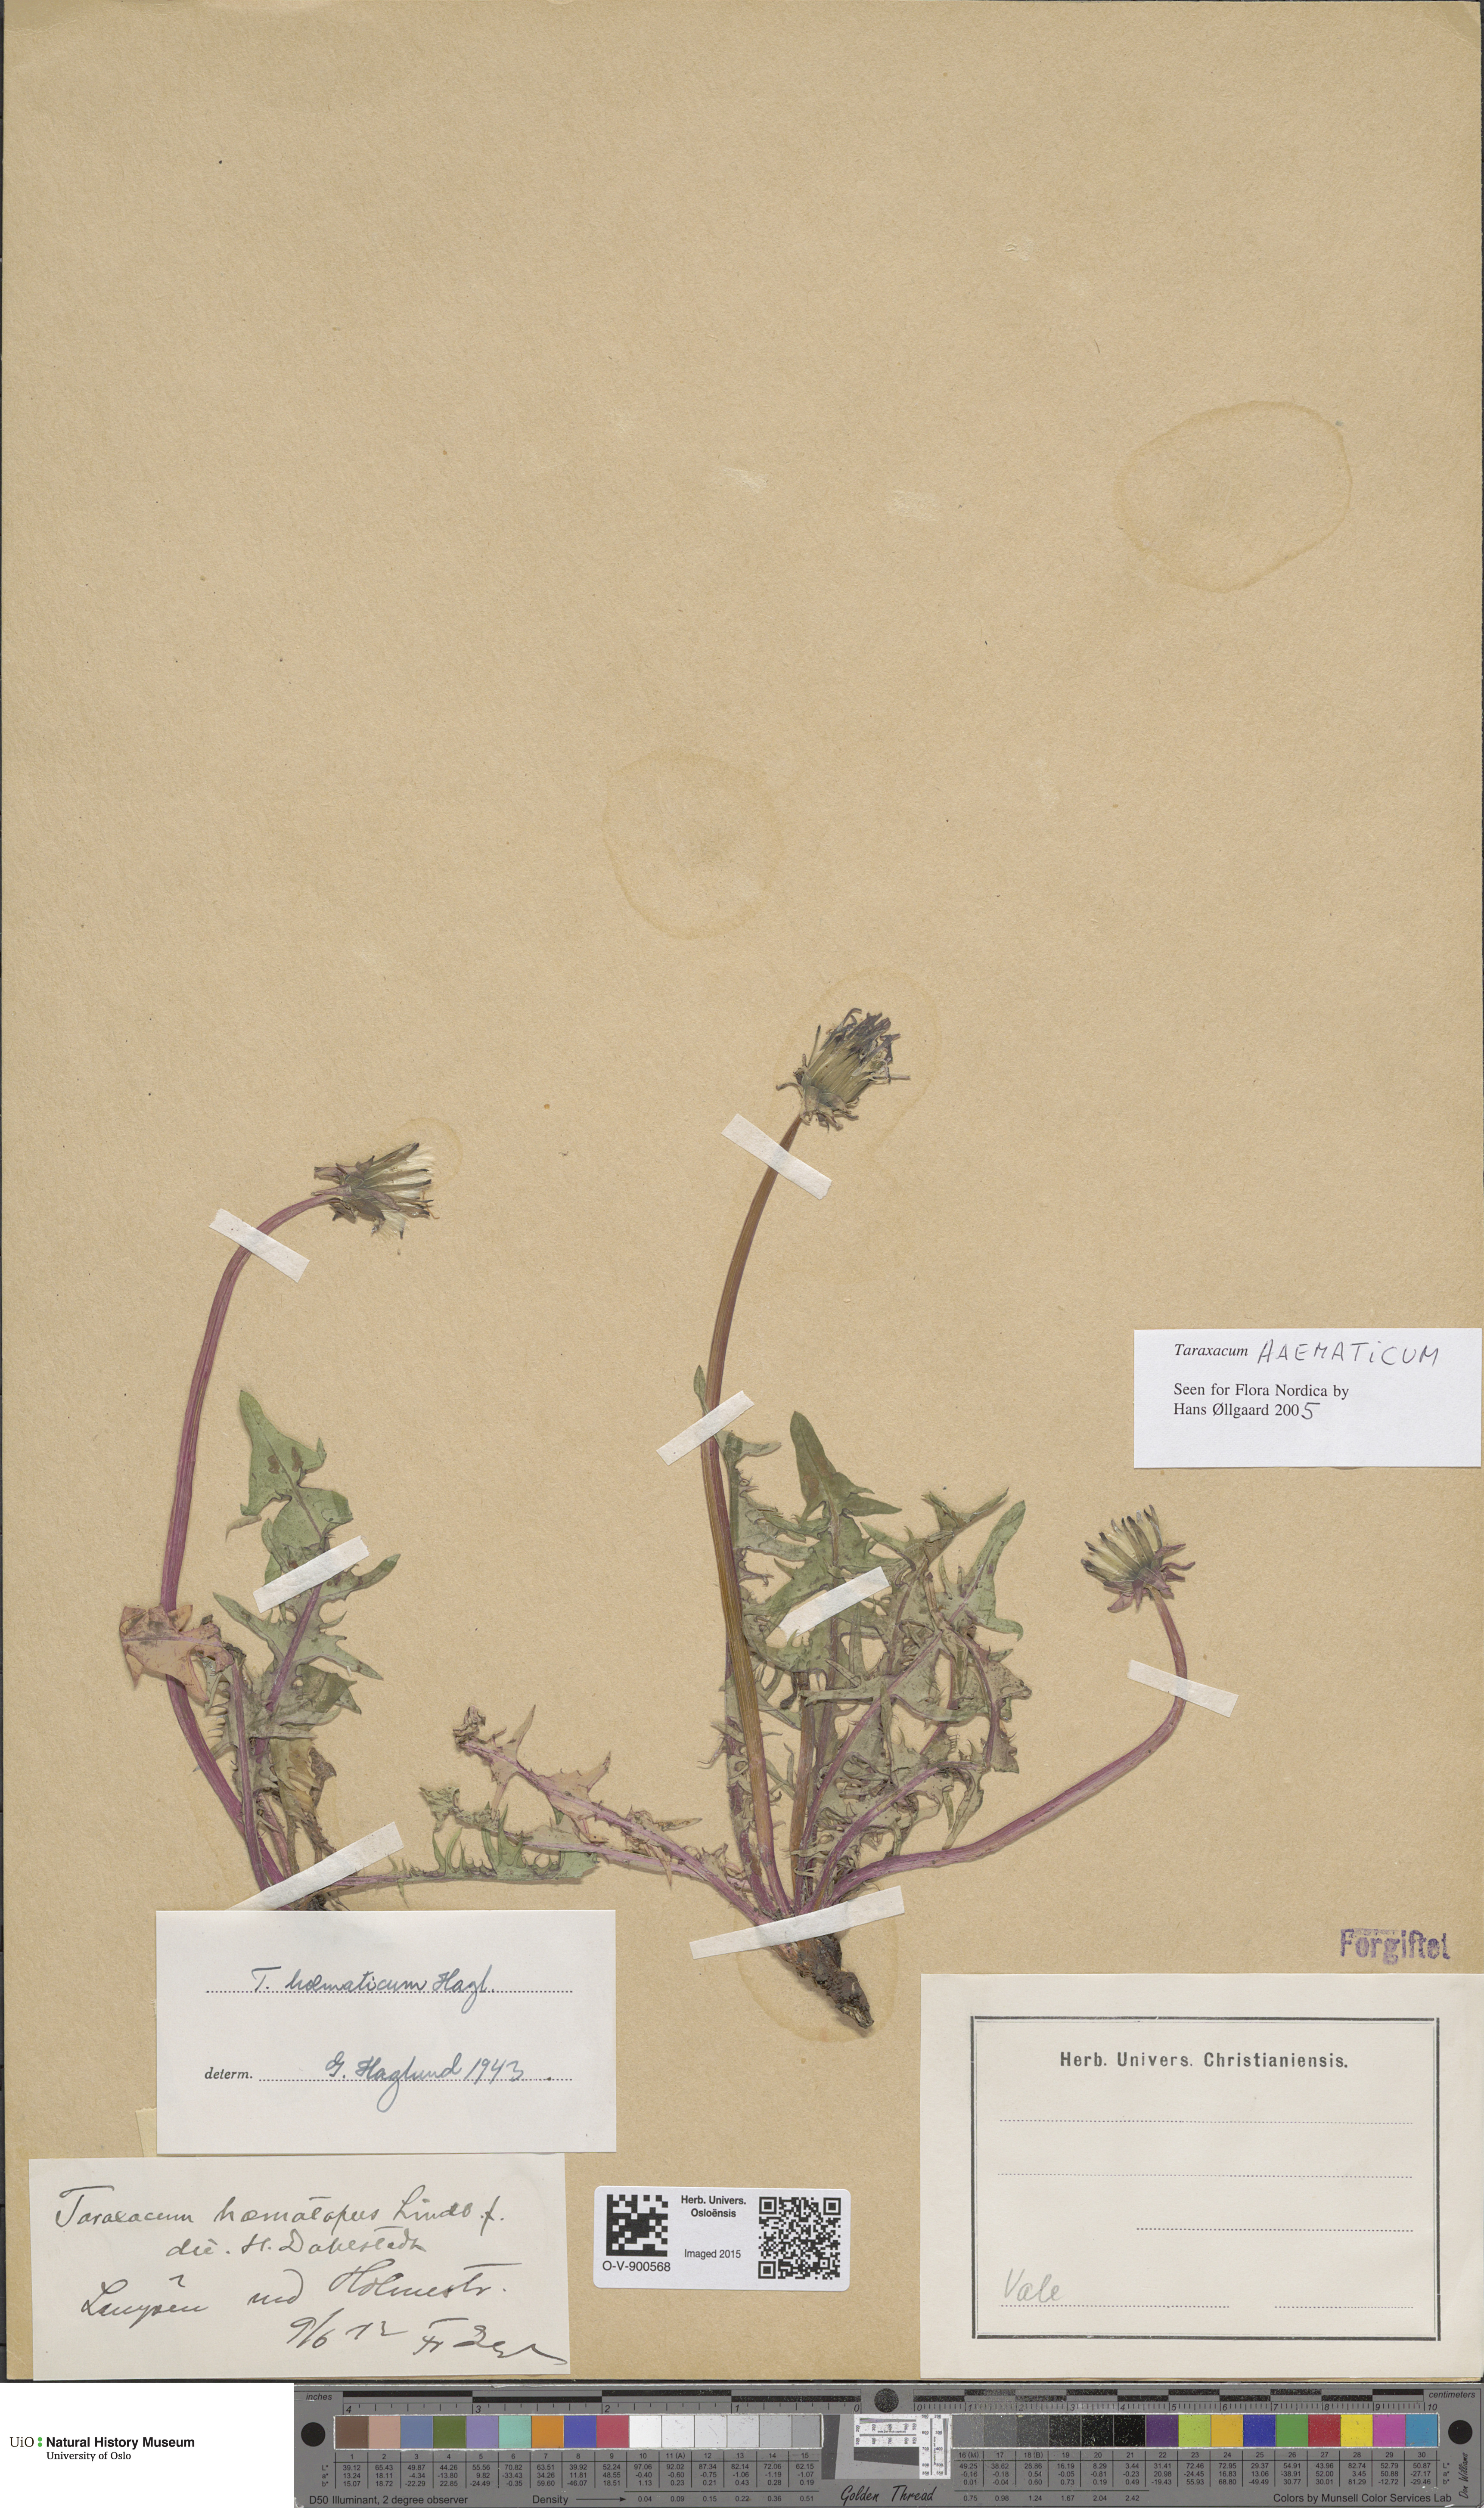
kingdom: Plantae
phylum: Tracheophyta
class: Magnoliopsida
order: Asterales
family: Asteraceae
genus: Taraxacum
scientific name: Taraxacum haematicum
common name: Blood-red dandelion
